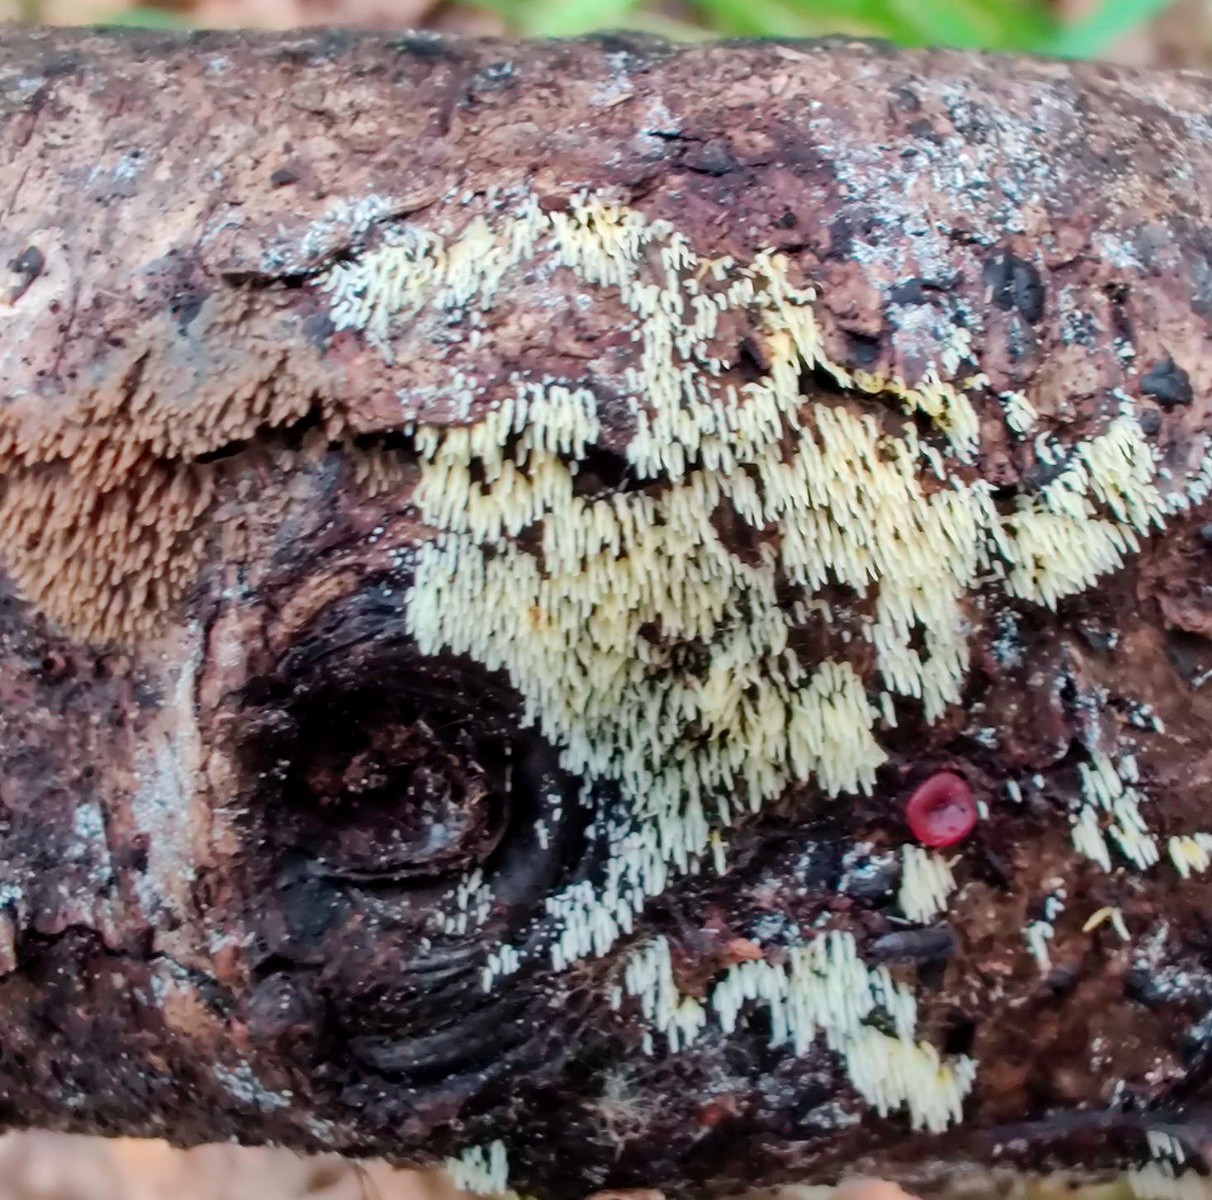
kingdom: Fungi
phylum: Basidiomycota
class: Agaricomycetes
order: Polyporales
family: Meruliaceae
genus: Mycoacia
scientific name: Mycoacia uda
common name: citrongul vokspig
